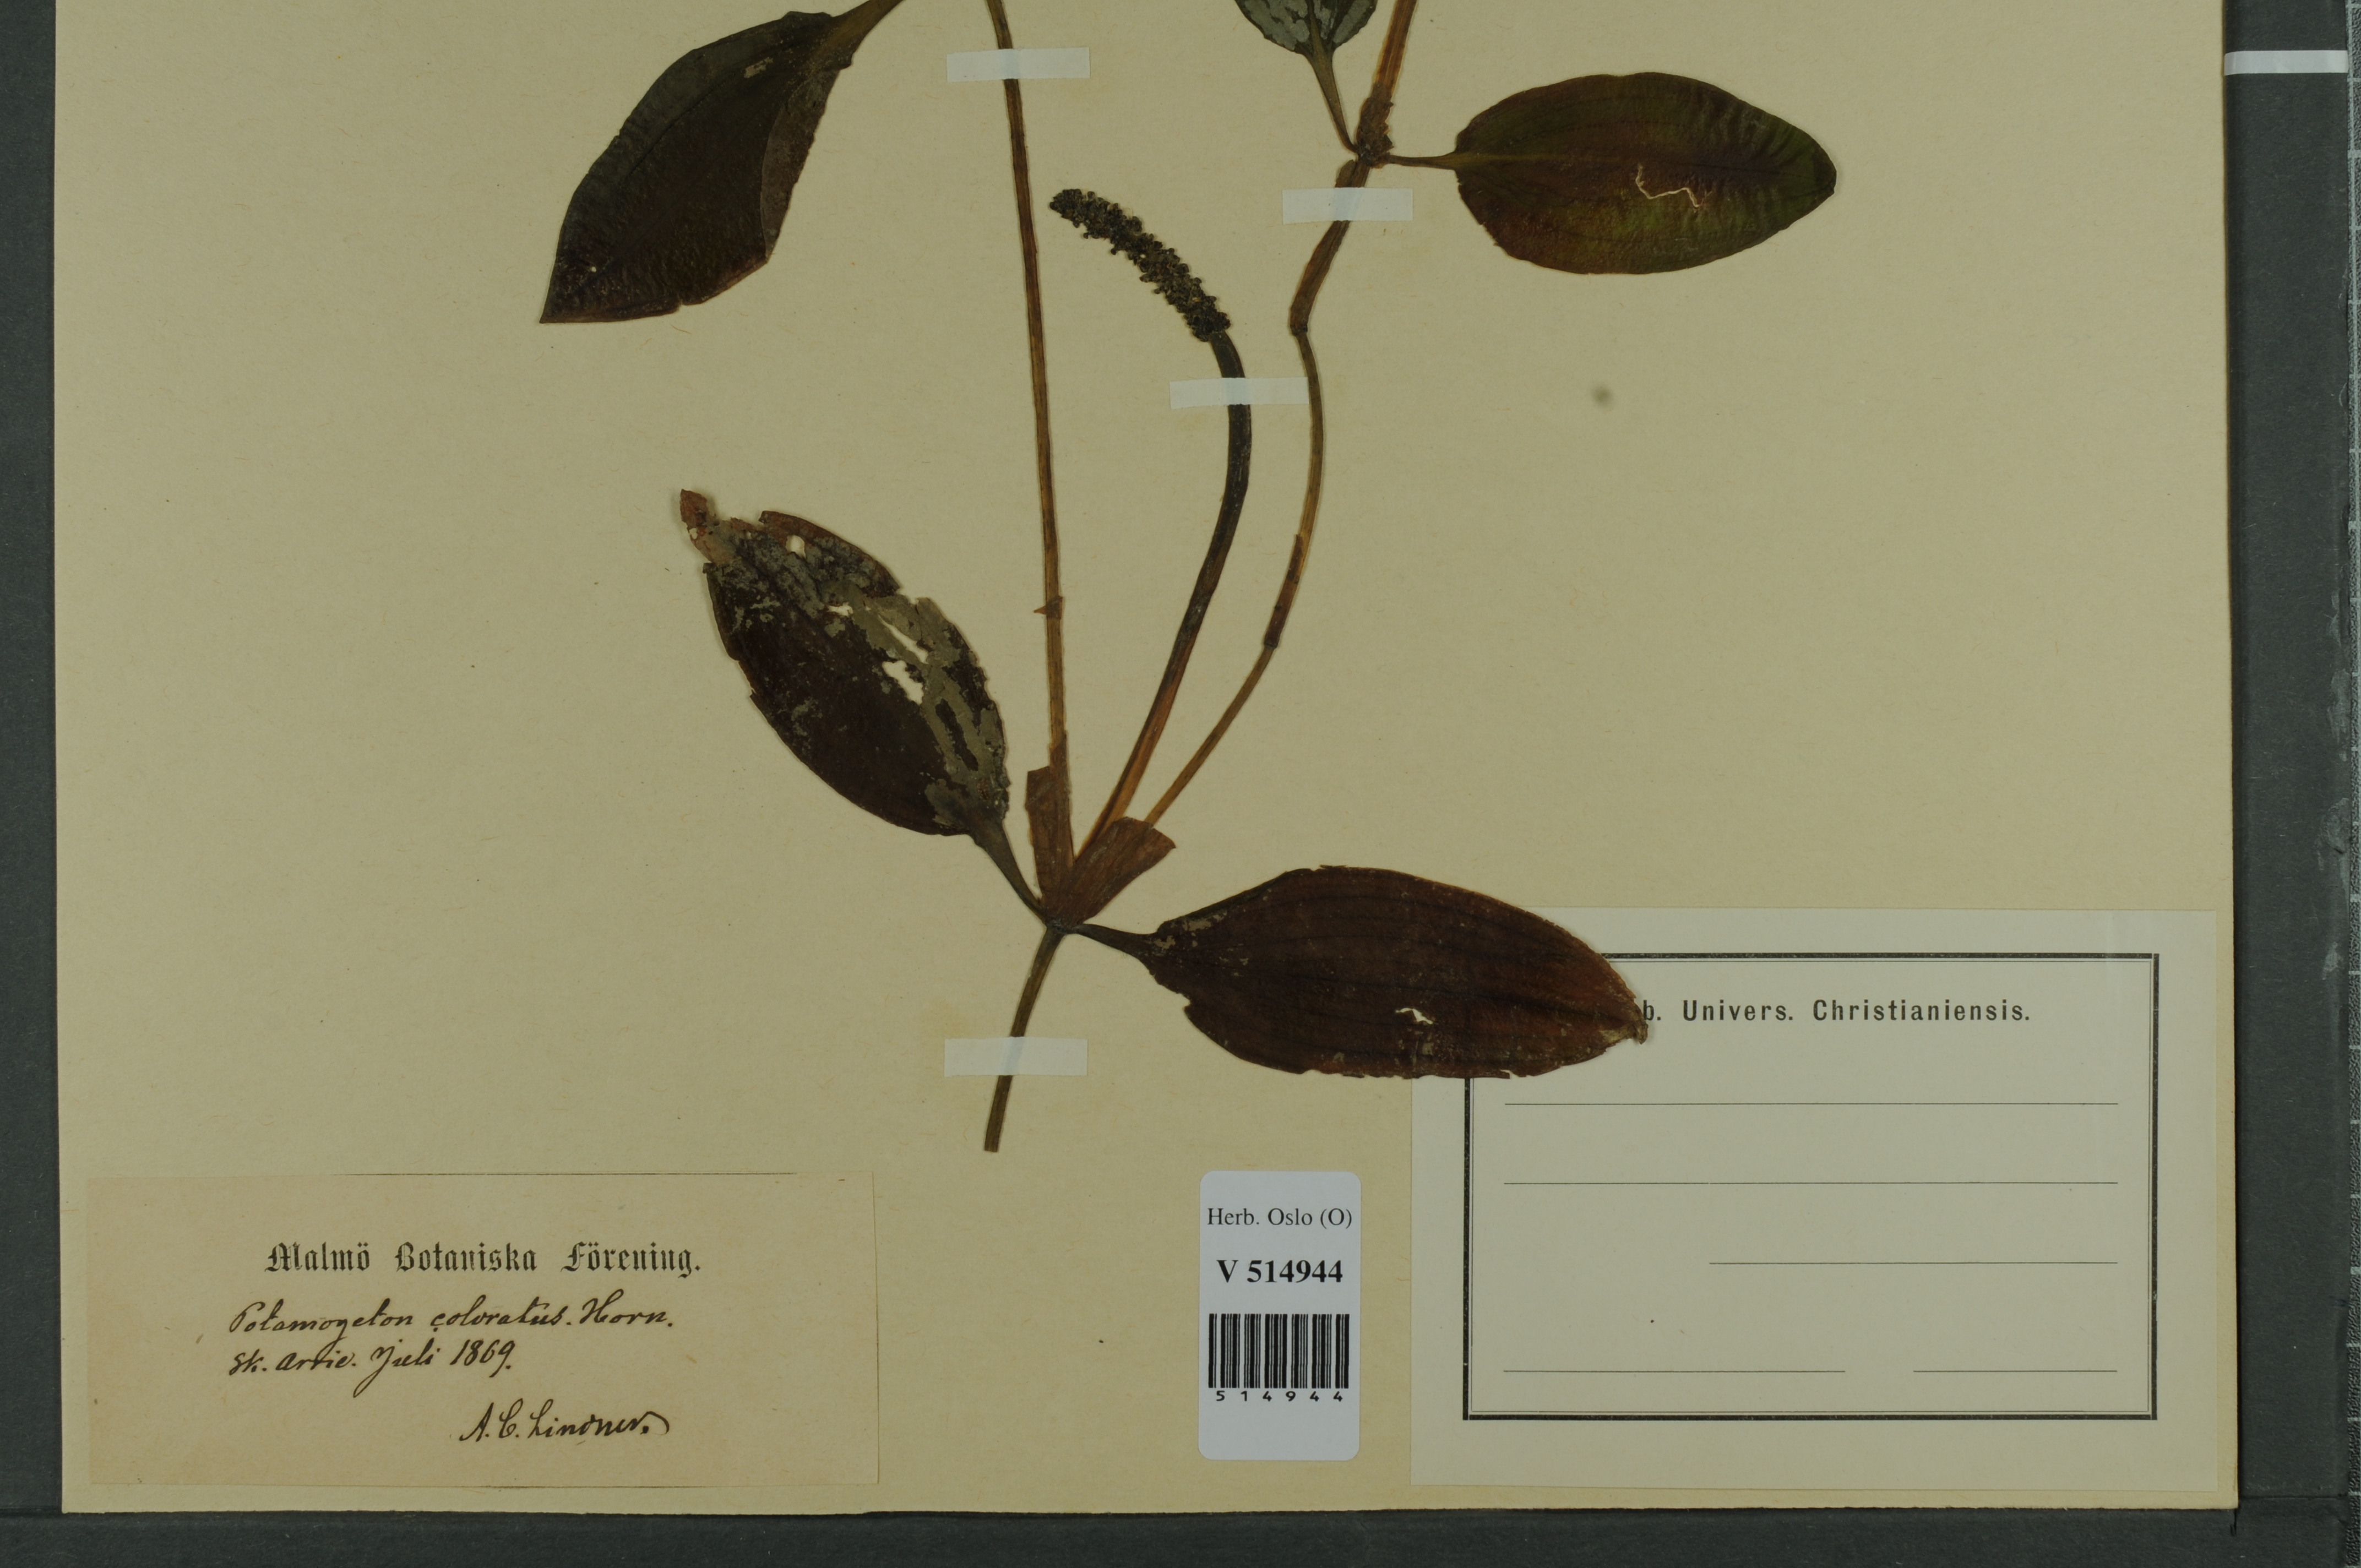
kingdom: Plantae
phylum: Tracheophyta
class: Liliopsida
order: Alismatales
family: Potamogetonaceae
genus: Potamogeton
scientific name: Potamogeton coloratus
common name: Fen pondweed
